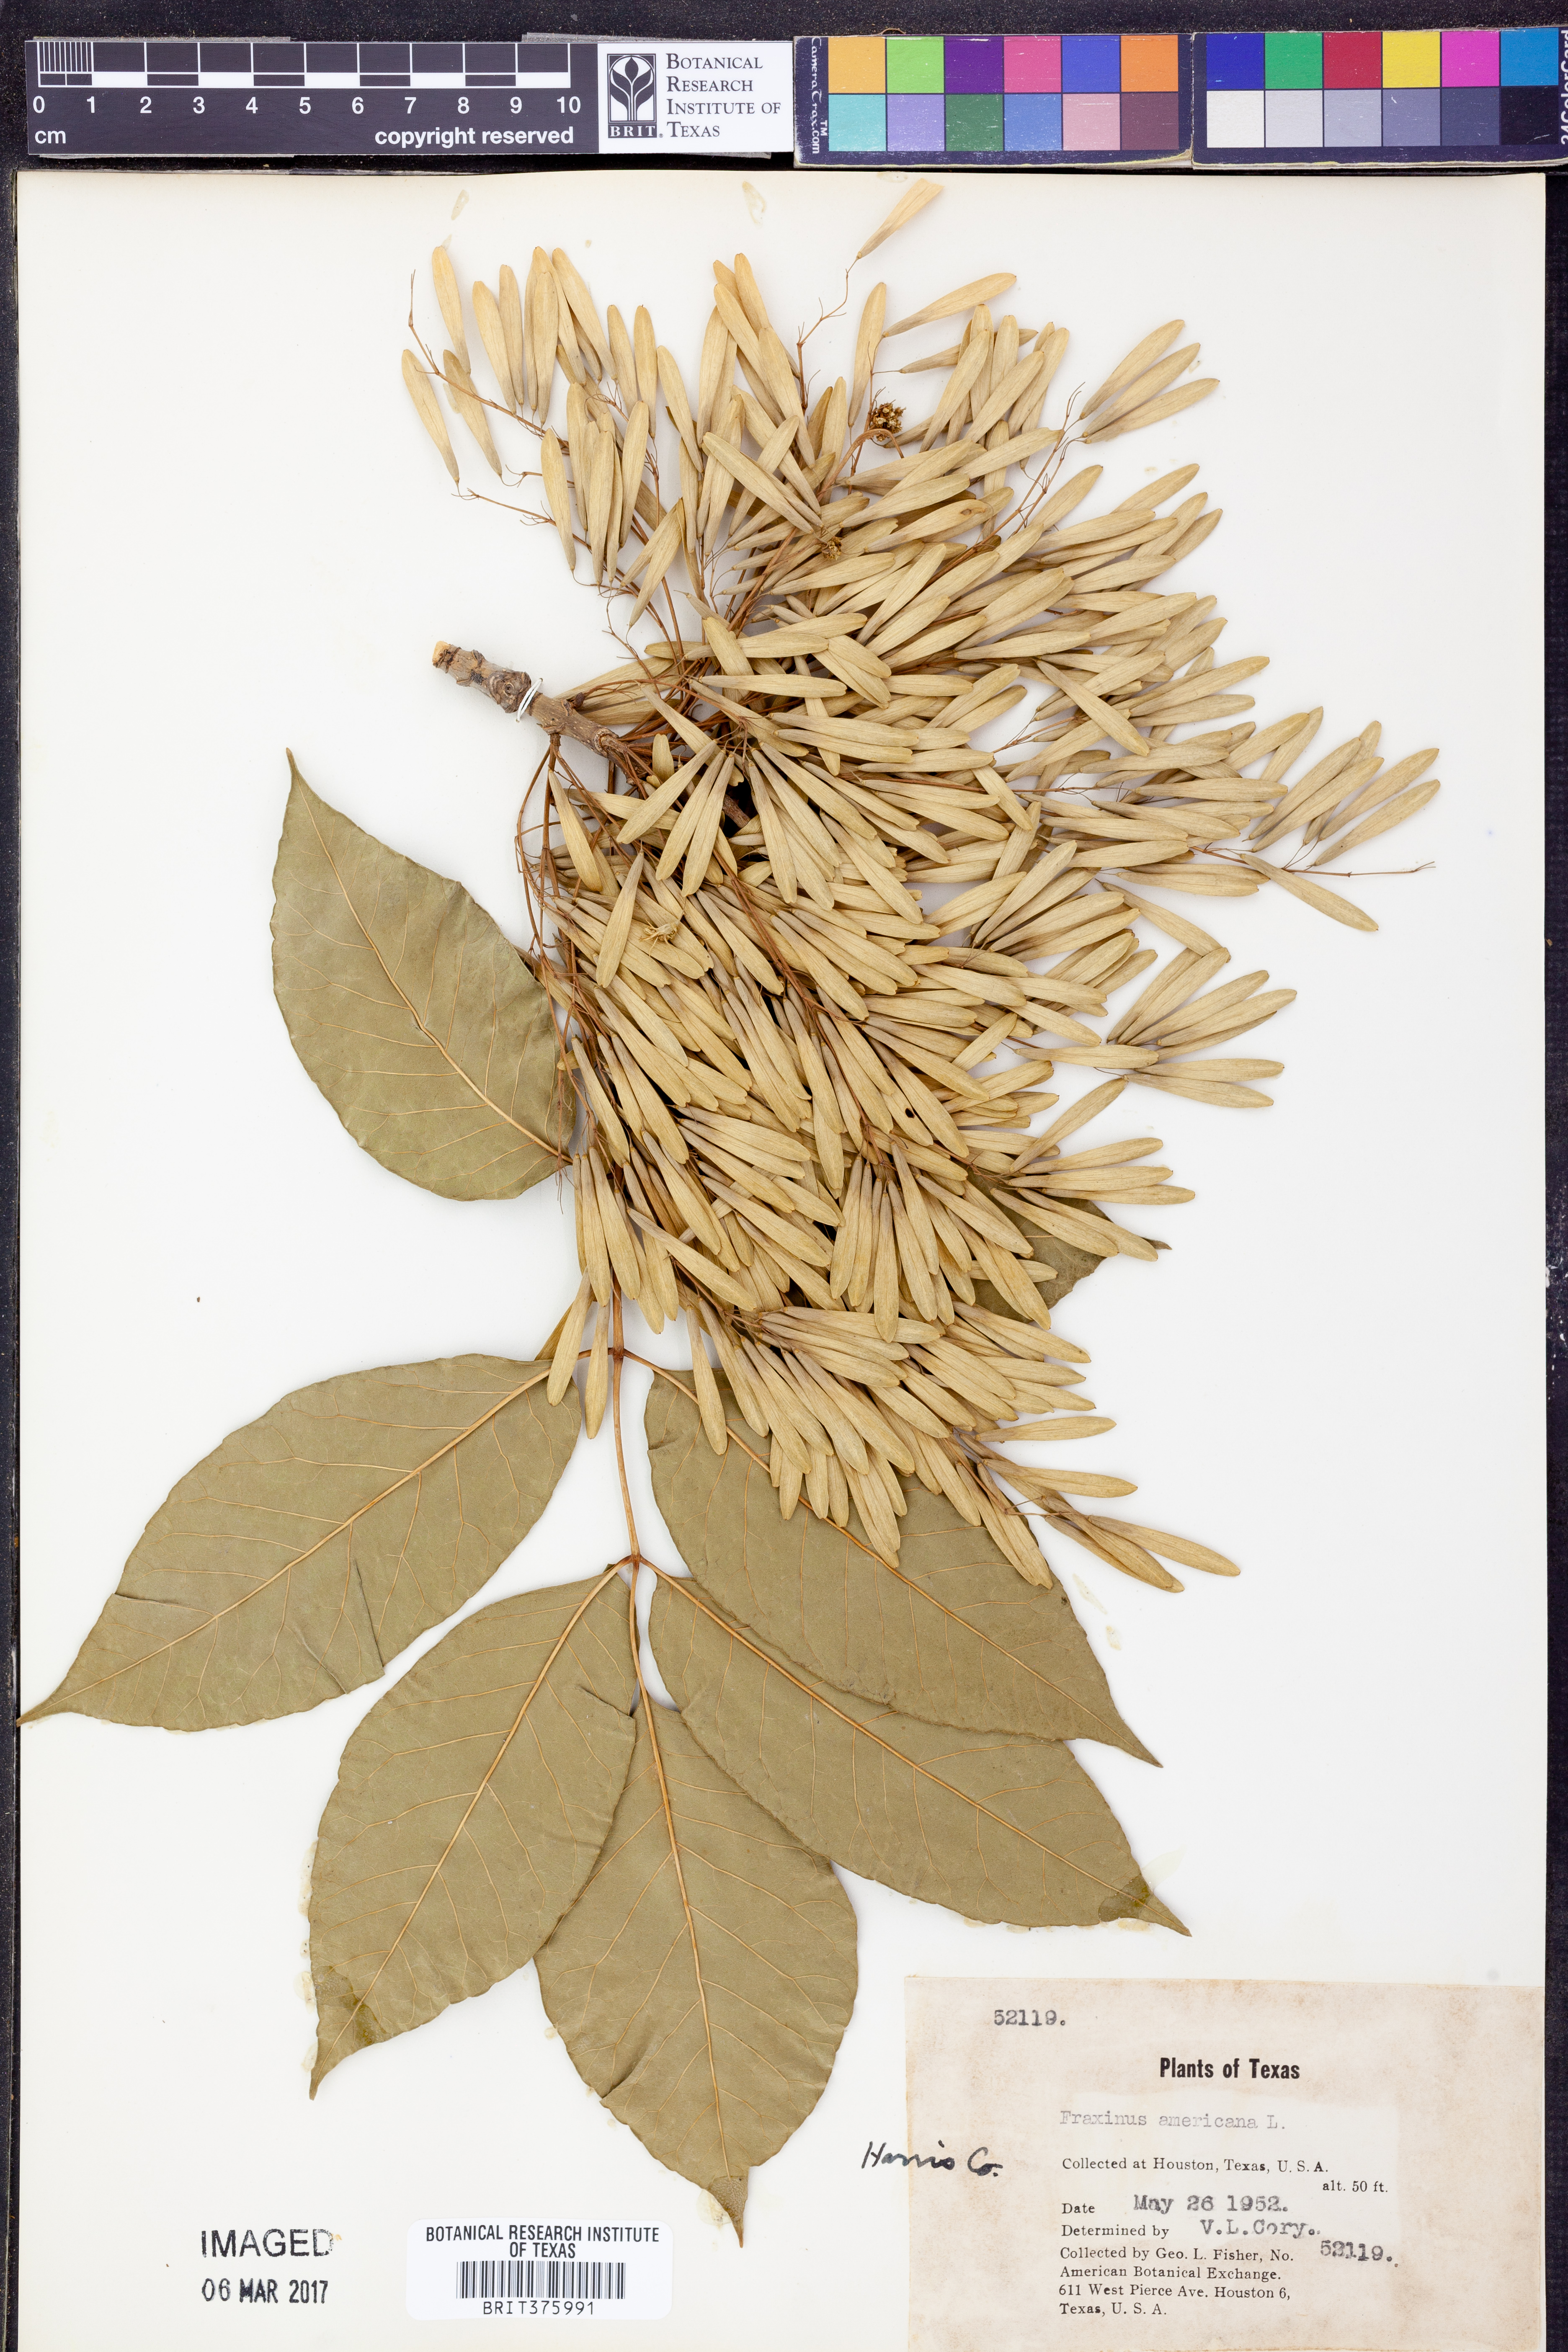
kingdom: Plantae
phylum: Tracheophyta
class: Magnoliopsida
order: Lamiales
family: Oleaceae
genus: Fraxinus
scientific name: Fraxinus americana
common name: White ash
